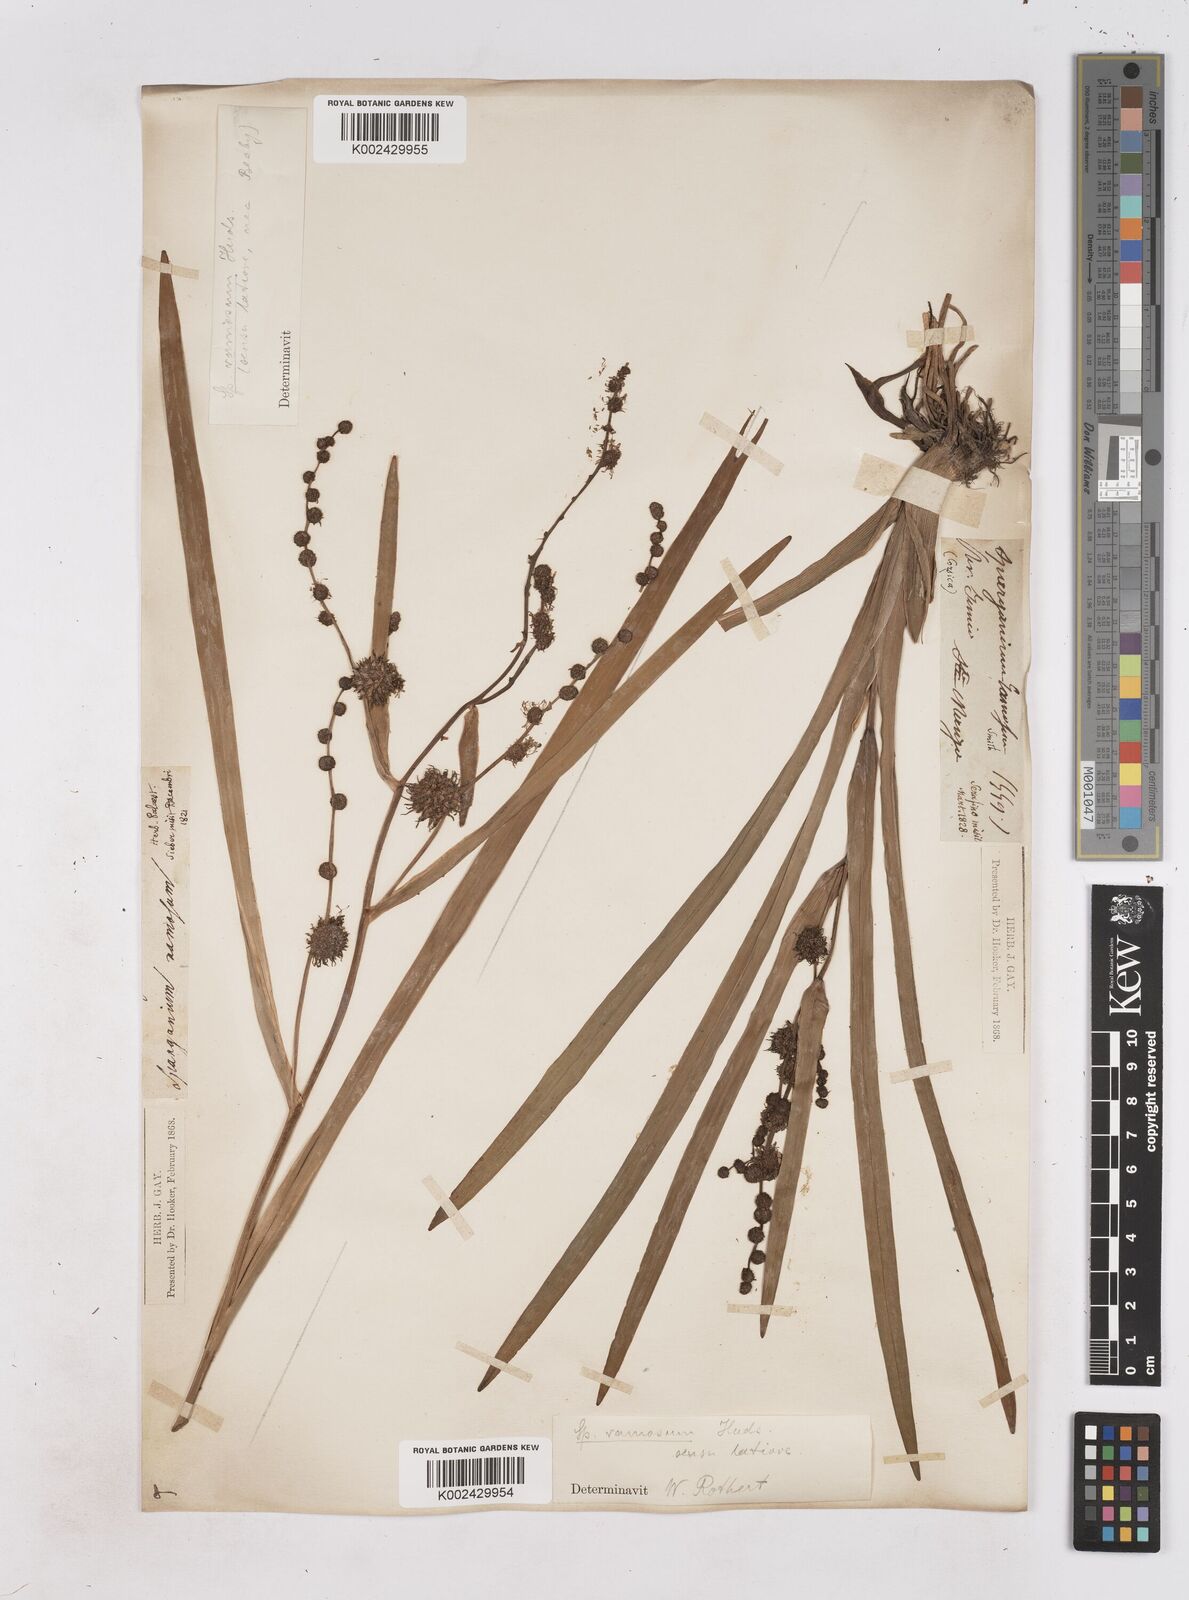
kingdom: Plantae
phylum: Tracheophyta
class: Liliopsida
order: Poales
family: Typhaceae
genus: Sparganium
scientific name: Sparganium erectum
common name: Branched bur-reed
